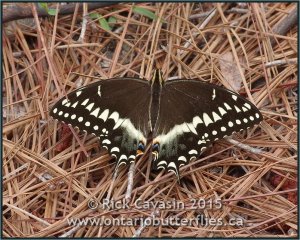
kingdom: Animalia
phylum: Arthropoda
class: Insecta
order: Lepidoptera
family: Papilionidae
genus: Pterourus
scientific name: Pterourus palamedes
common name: Palamedes Swallowtail
